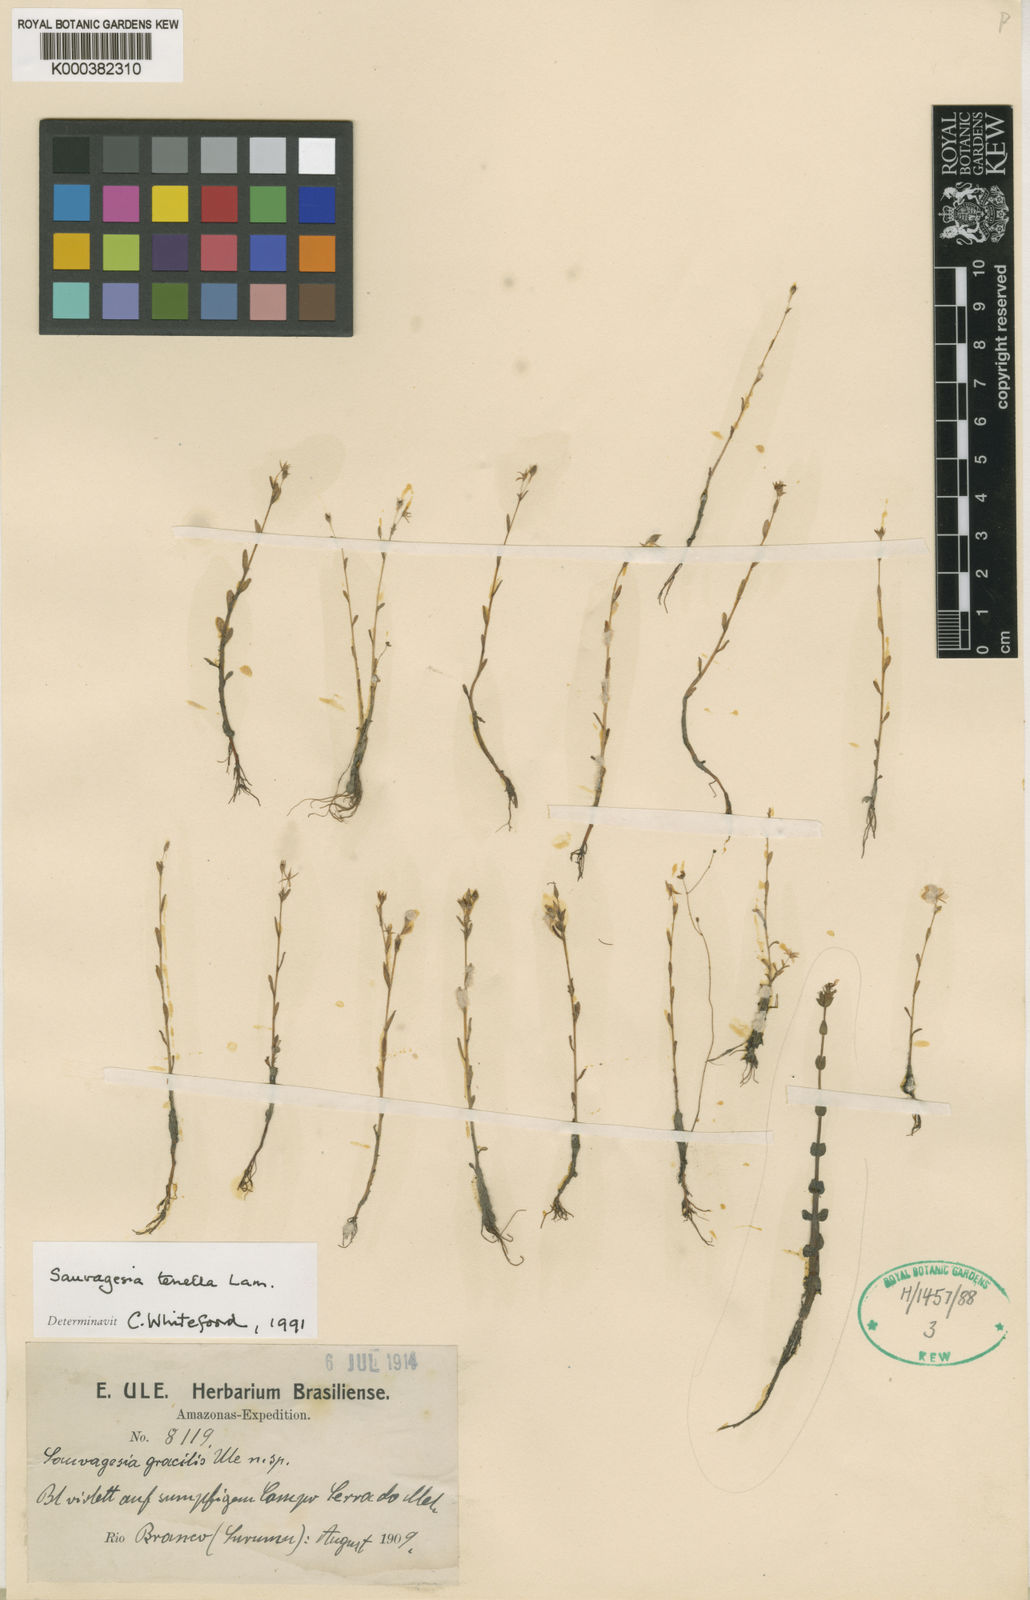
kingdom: Plantae
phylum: Tracheophyta
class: Magnoliopsida
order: Malpighiales
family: Ochnaceae
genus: Sauvagesia
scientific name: Sauvagesia tenella
